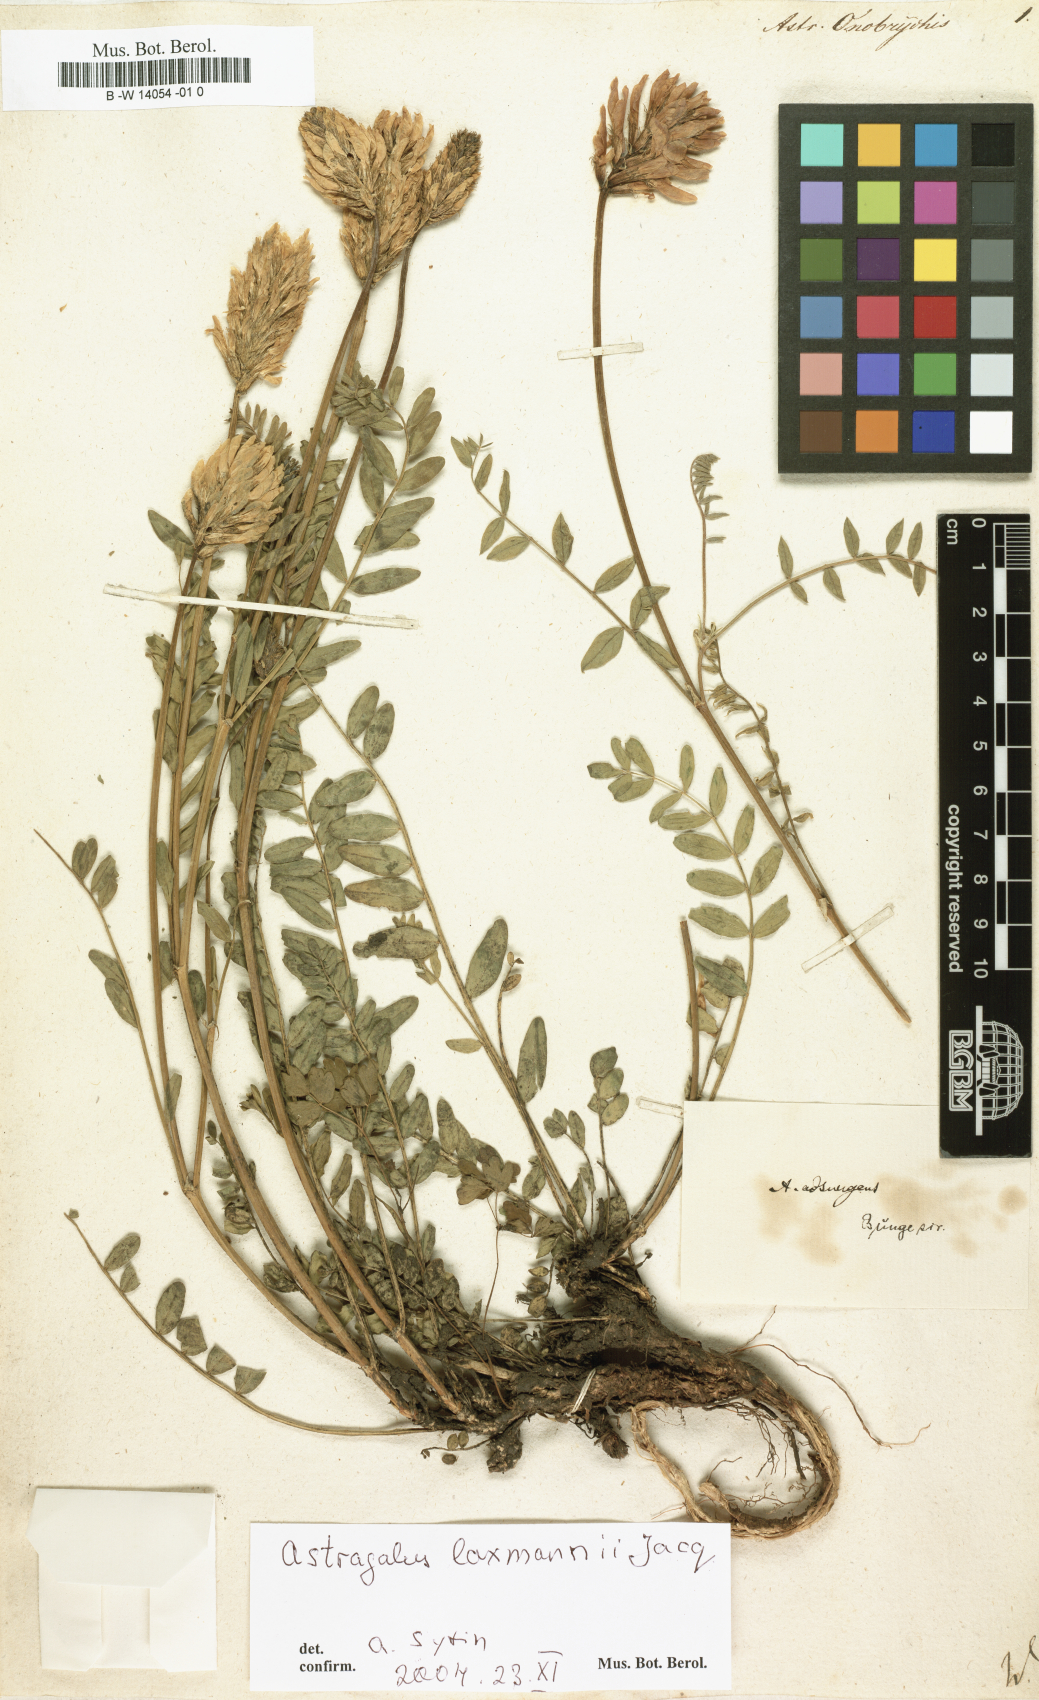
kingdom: Plantae
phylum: Tracheophyta
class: Magnoliopsida
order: Fabales
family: Fabaceae
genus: Astragalus
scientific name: Astragalus onobrychis
